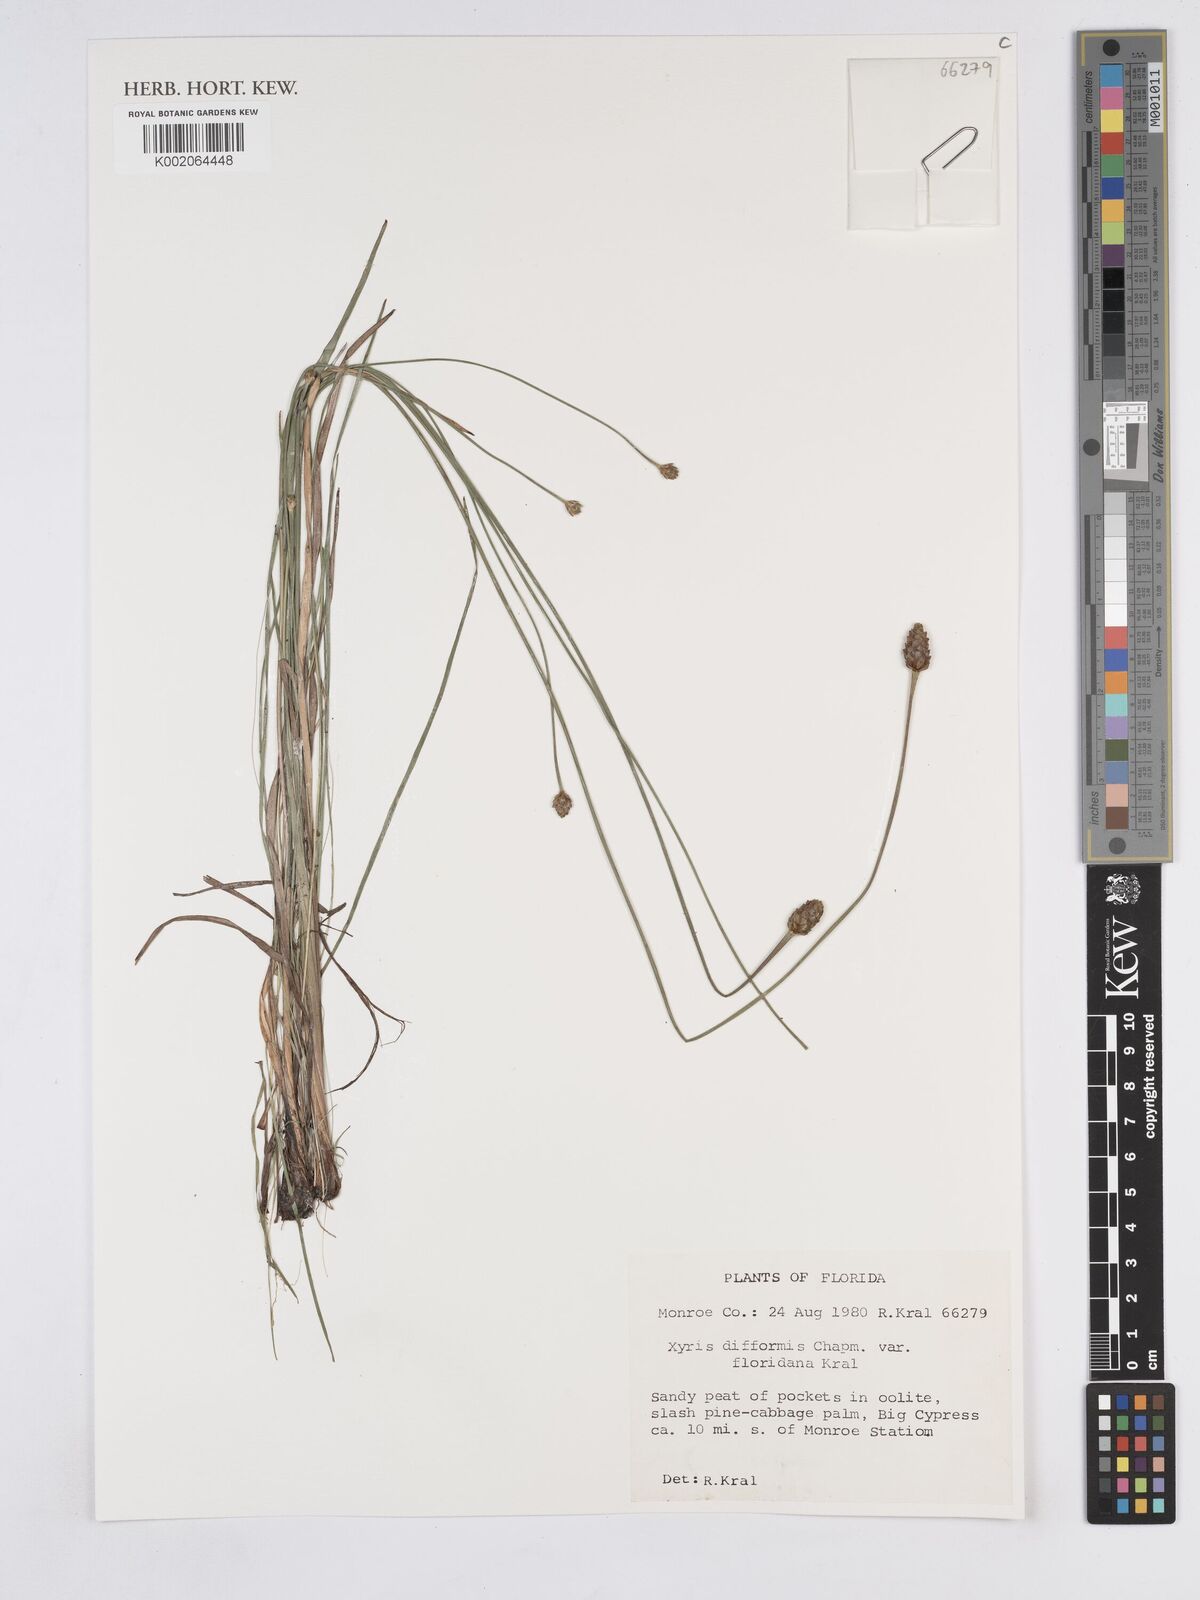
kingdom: Plantae
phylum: Tracheophyta
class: Liliopsida
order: Poales
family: Xyridaceae
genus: Xyris
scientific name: Xyris floridana
